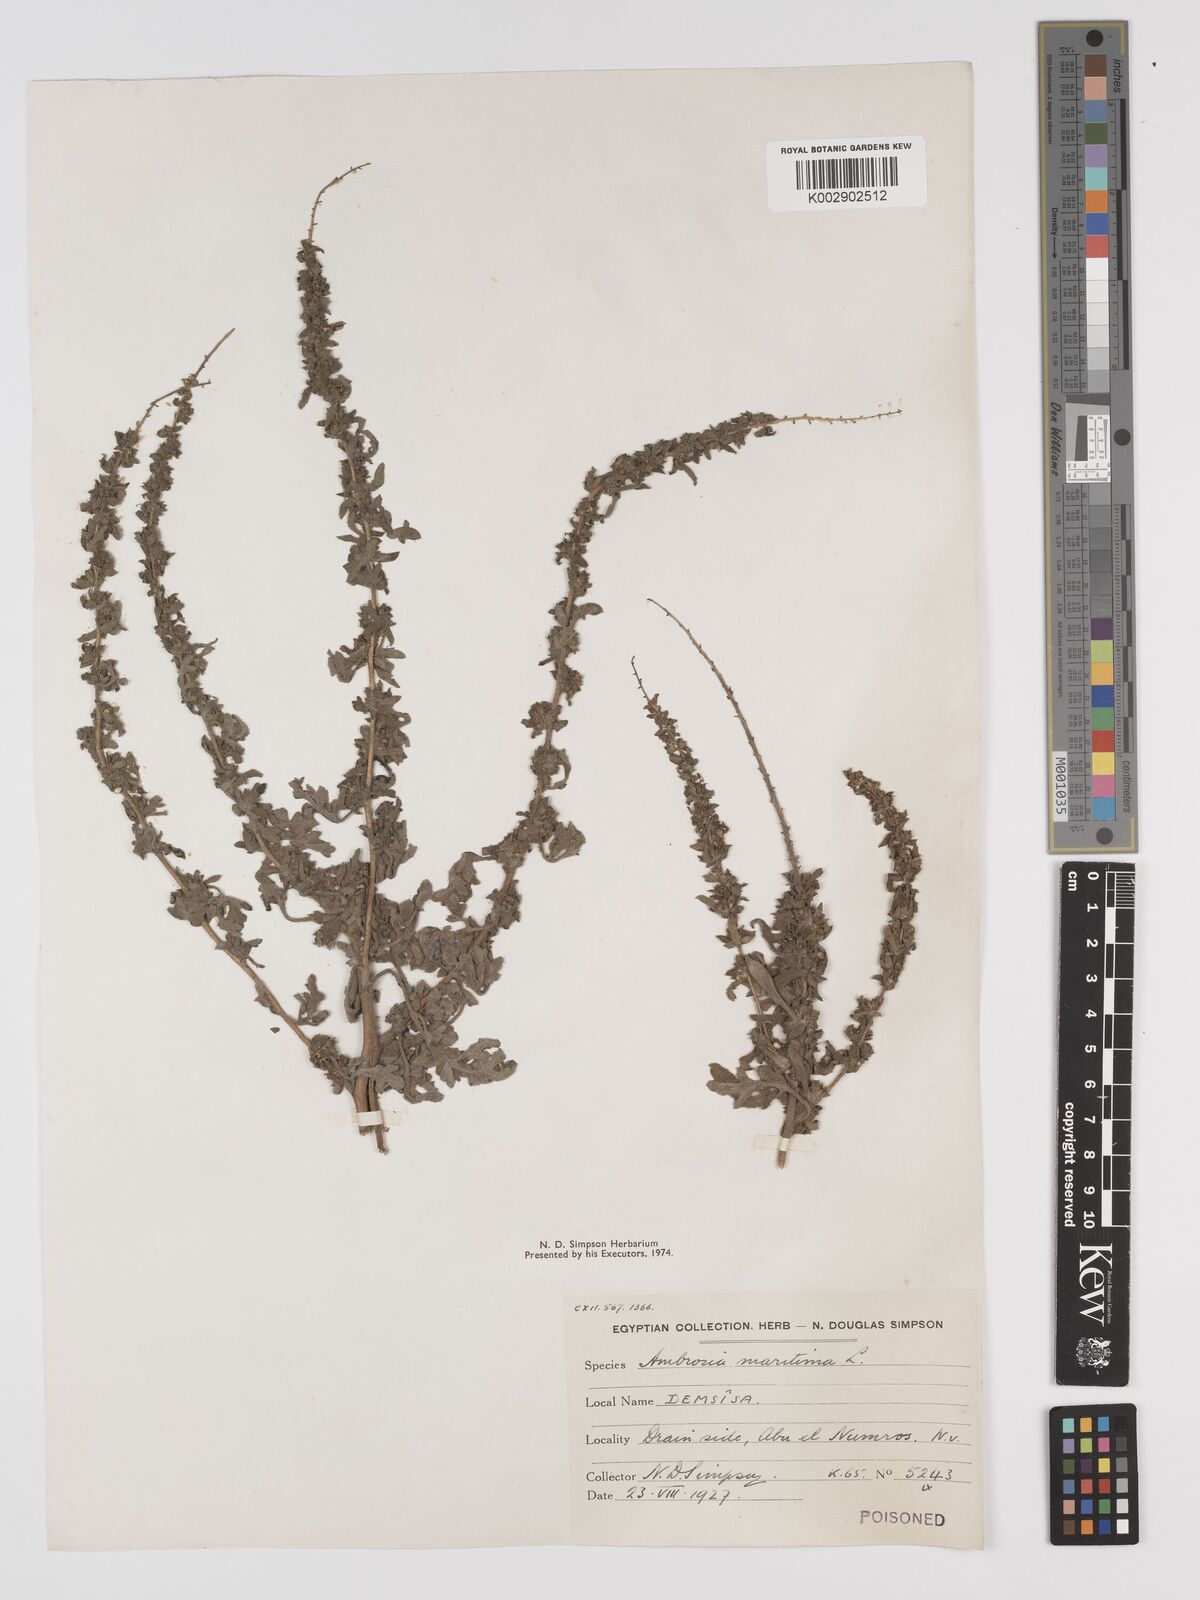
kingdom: Plantae
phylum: Tracheophyta
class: Magnoliopsida
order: Asterales
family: Asteraceae
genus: Ambrosia
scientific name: Ambrosia maritima
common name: Sea ambrosia
